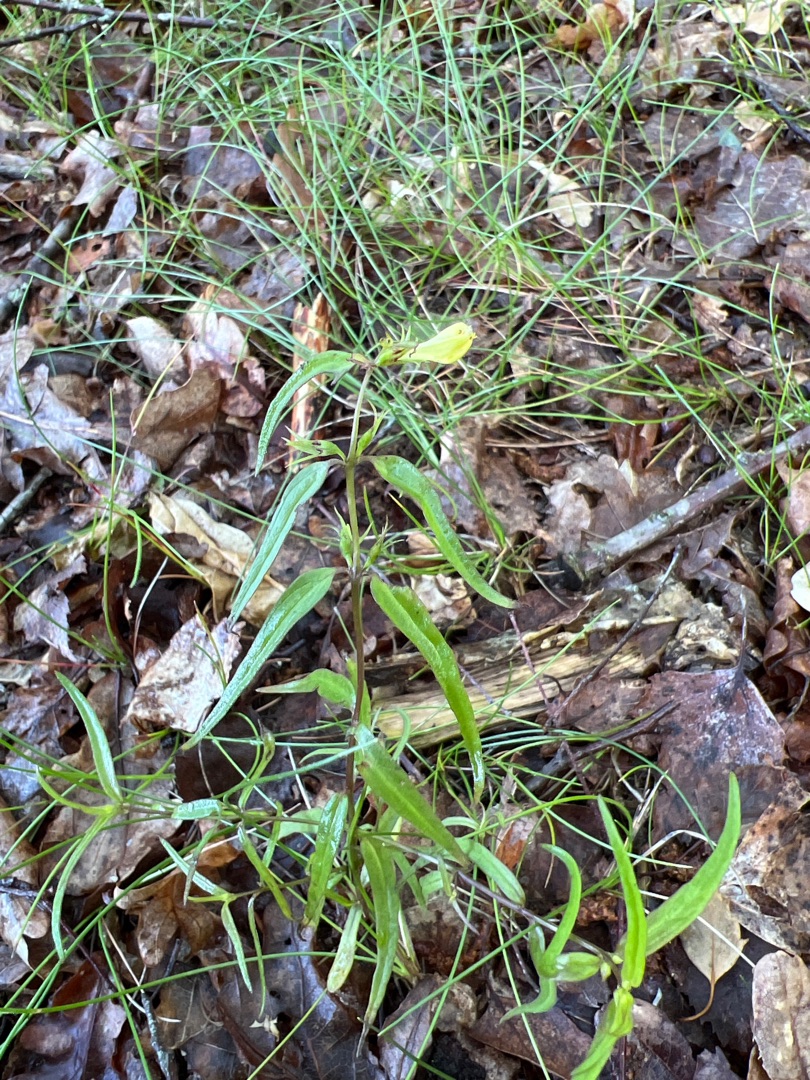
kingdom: Plantae
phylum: Tracheophyta
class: Magnoliopsida
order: Lamiales
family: Orobanchaceae
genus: Melampyrum
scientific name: Melampyrum pratense
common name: Almindelig kohvede
